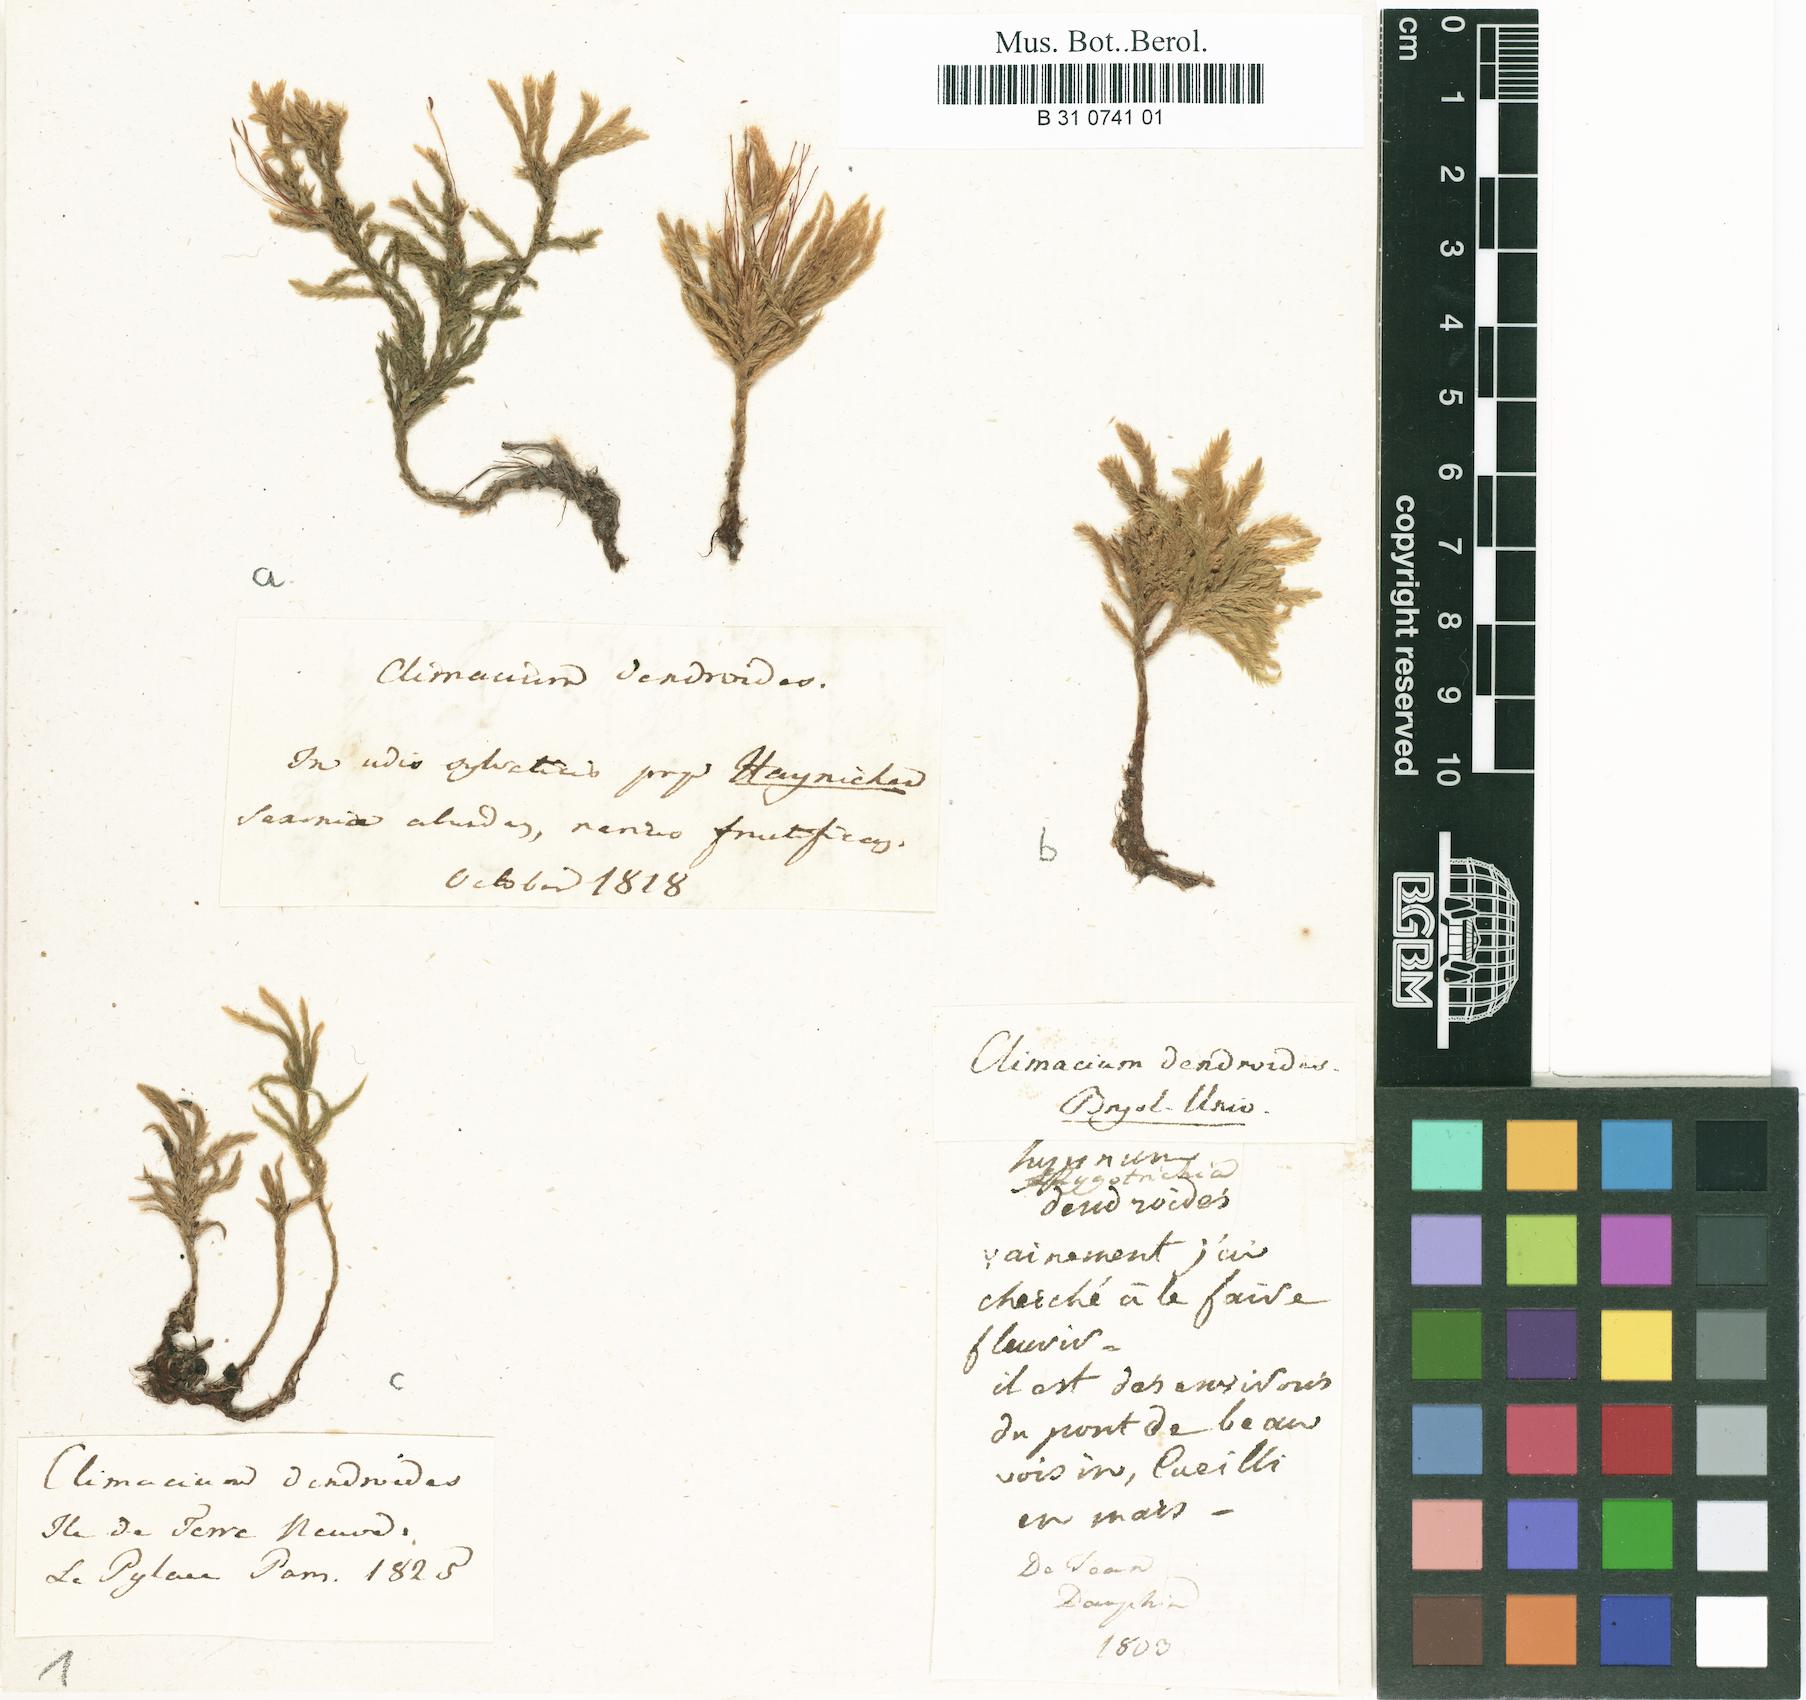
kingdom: Plantae
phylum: Bryophyta
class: Bryopsida
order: Hypnales
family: Climaciaceae
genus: Climacium
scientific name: Climacium dendroides
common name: Northern tree moss
